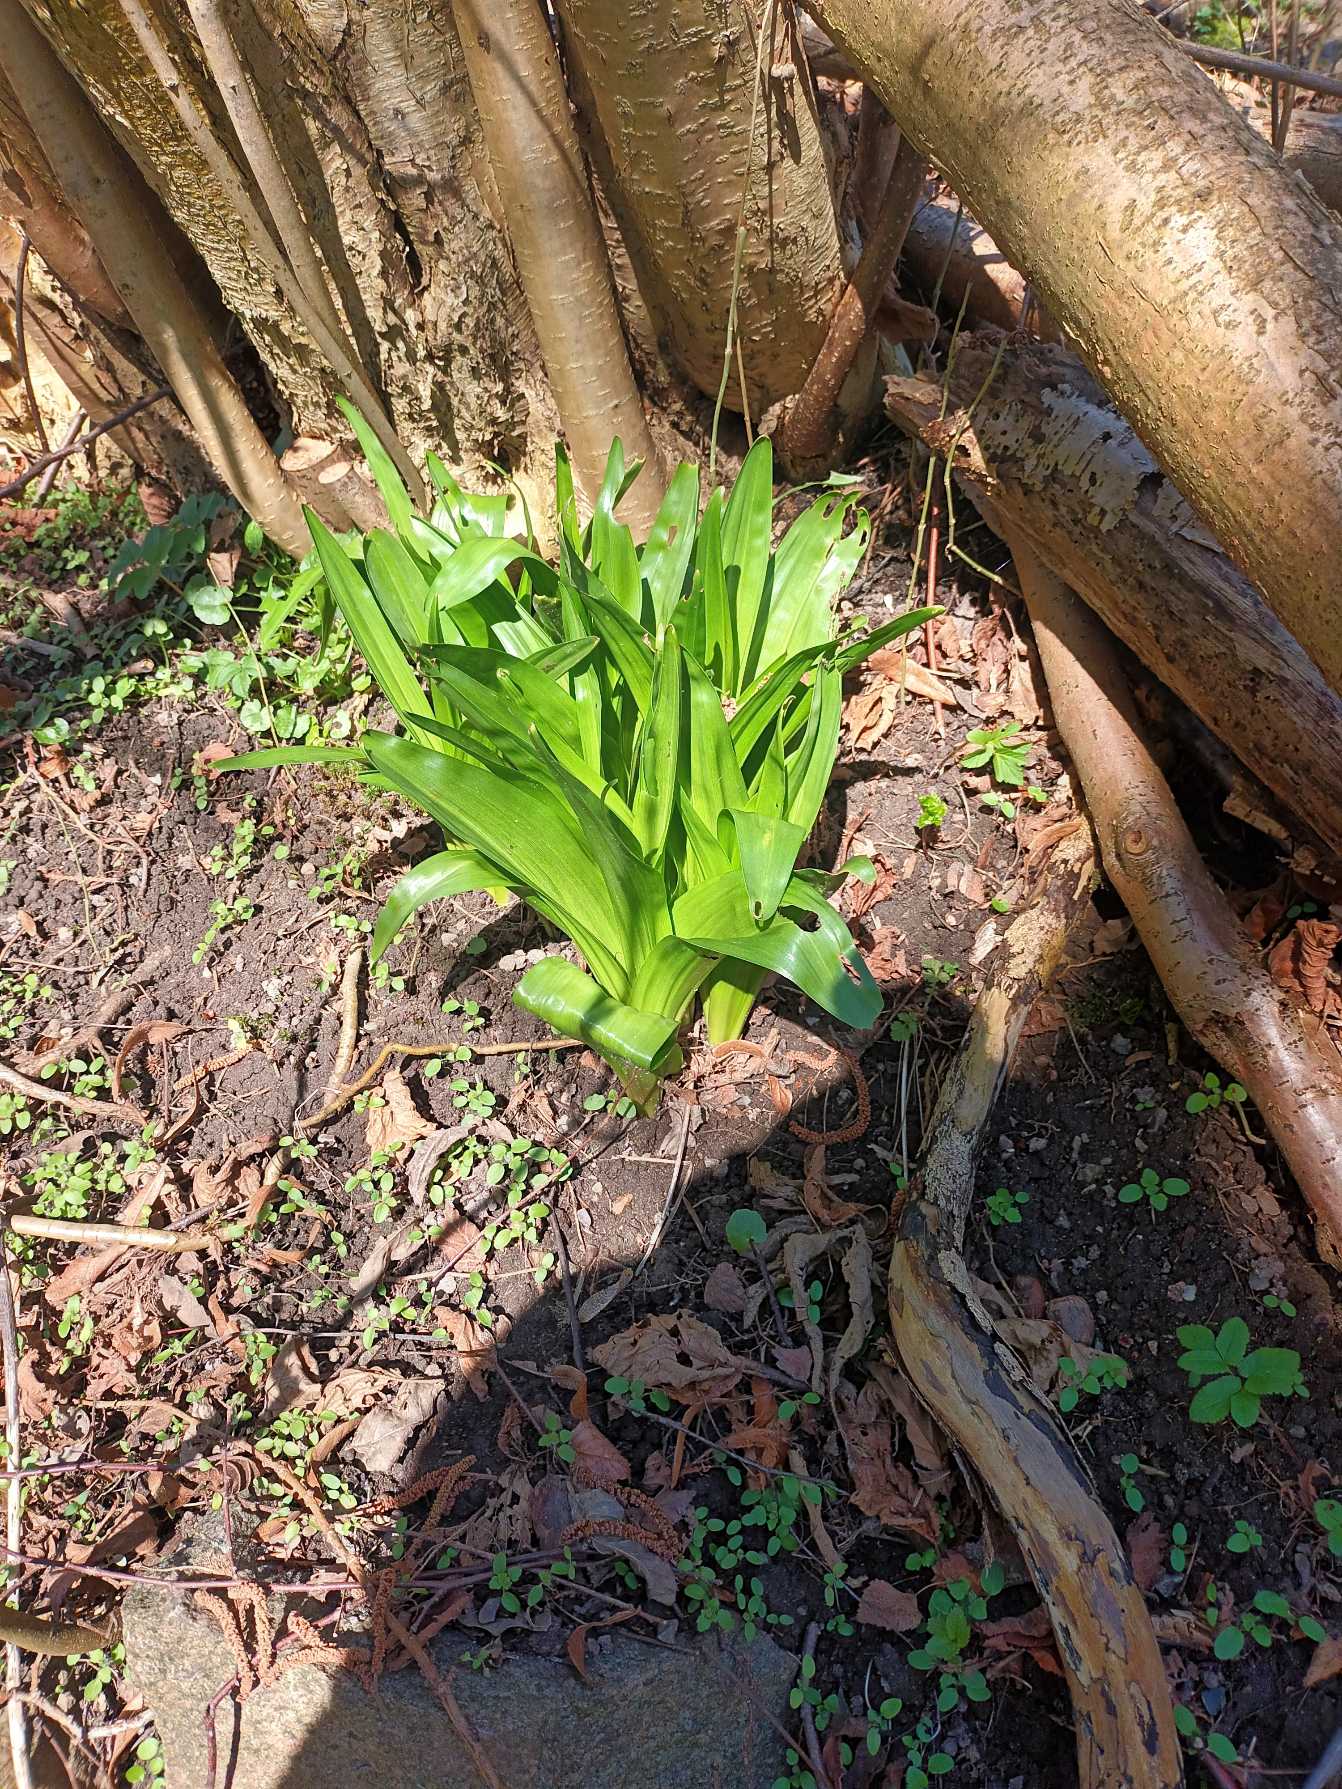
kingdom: Plantae
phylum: Tracheophyta
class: Liliopsida
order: Liliales
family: Colchicaceae
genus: Colchicum
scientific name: Colchicum autumnale
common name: Høst-tidløs
